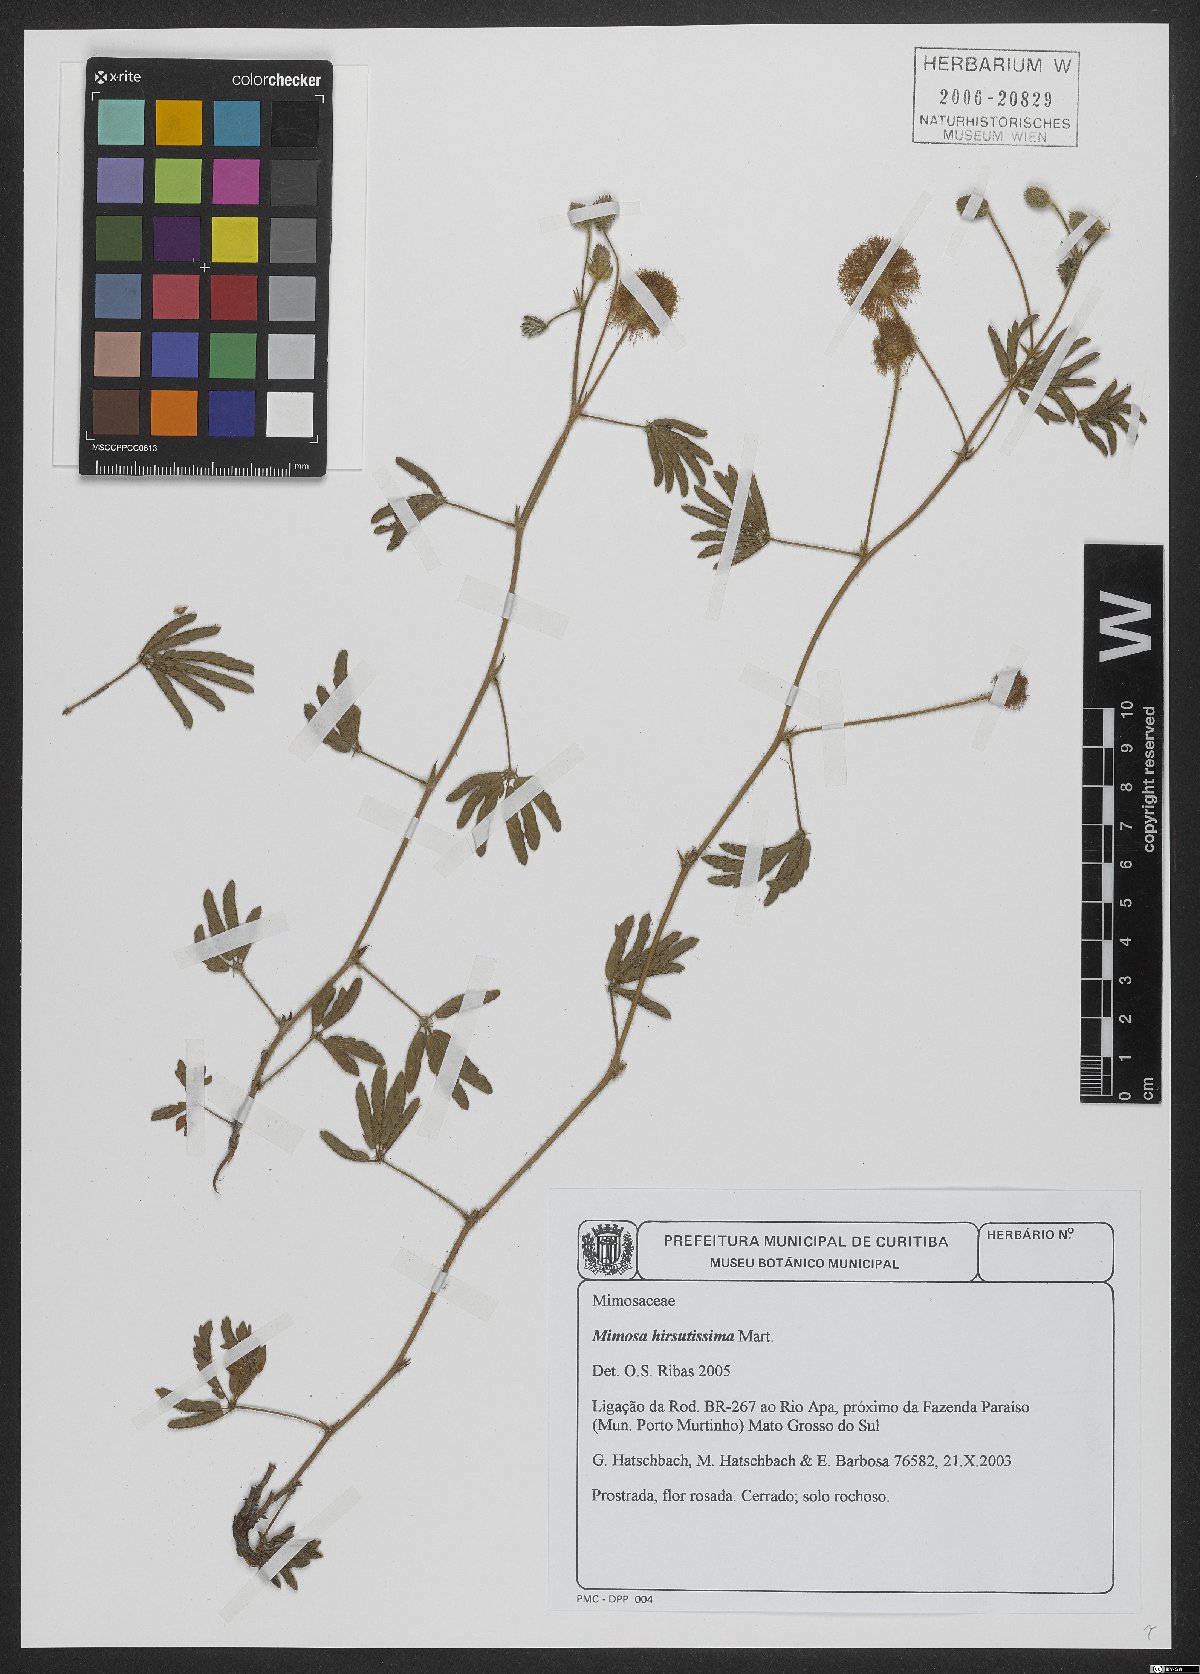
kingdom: Plantae
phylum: Tracheophyta
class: Magnoliopsida
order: Fabales
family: Fabaceae
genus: Mimosa
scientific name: Mimosa hirsutissima
